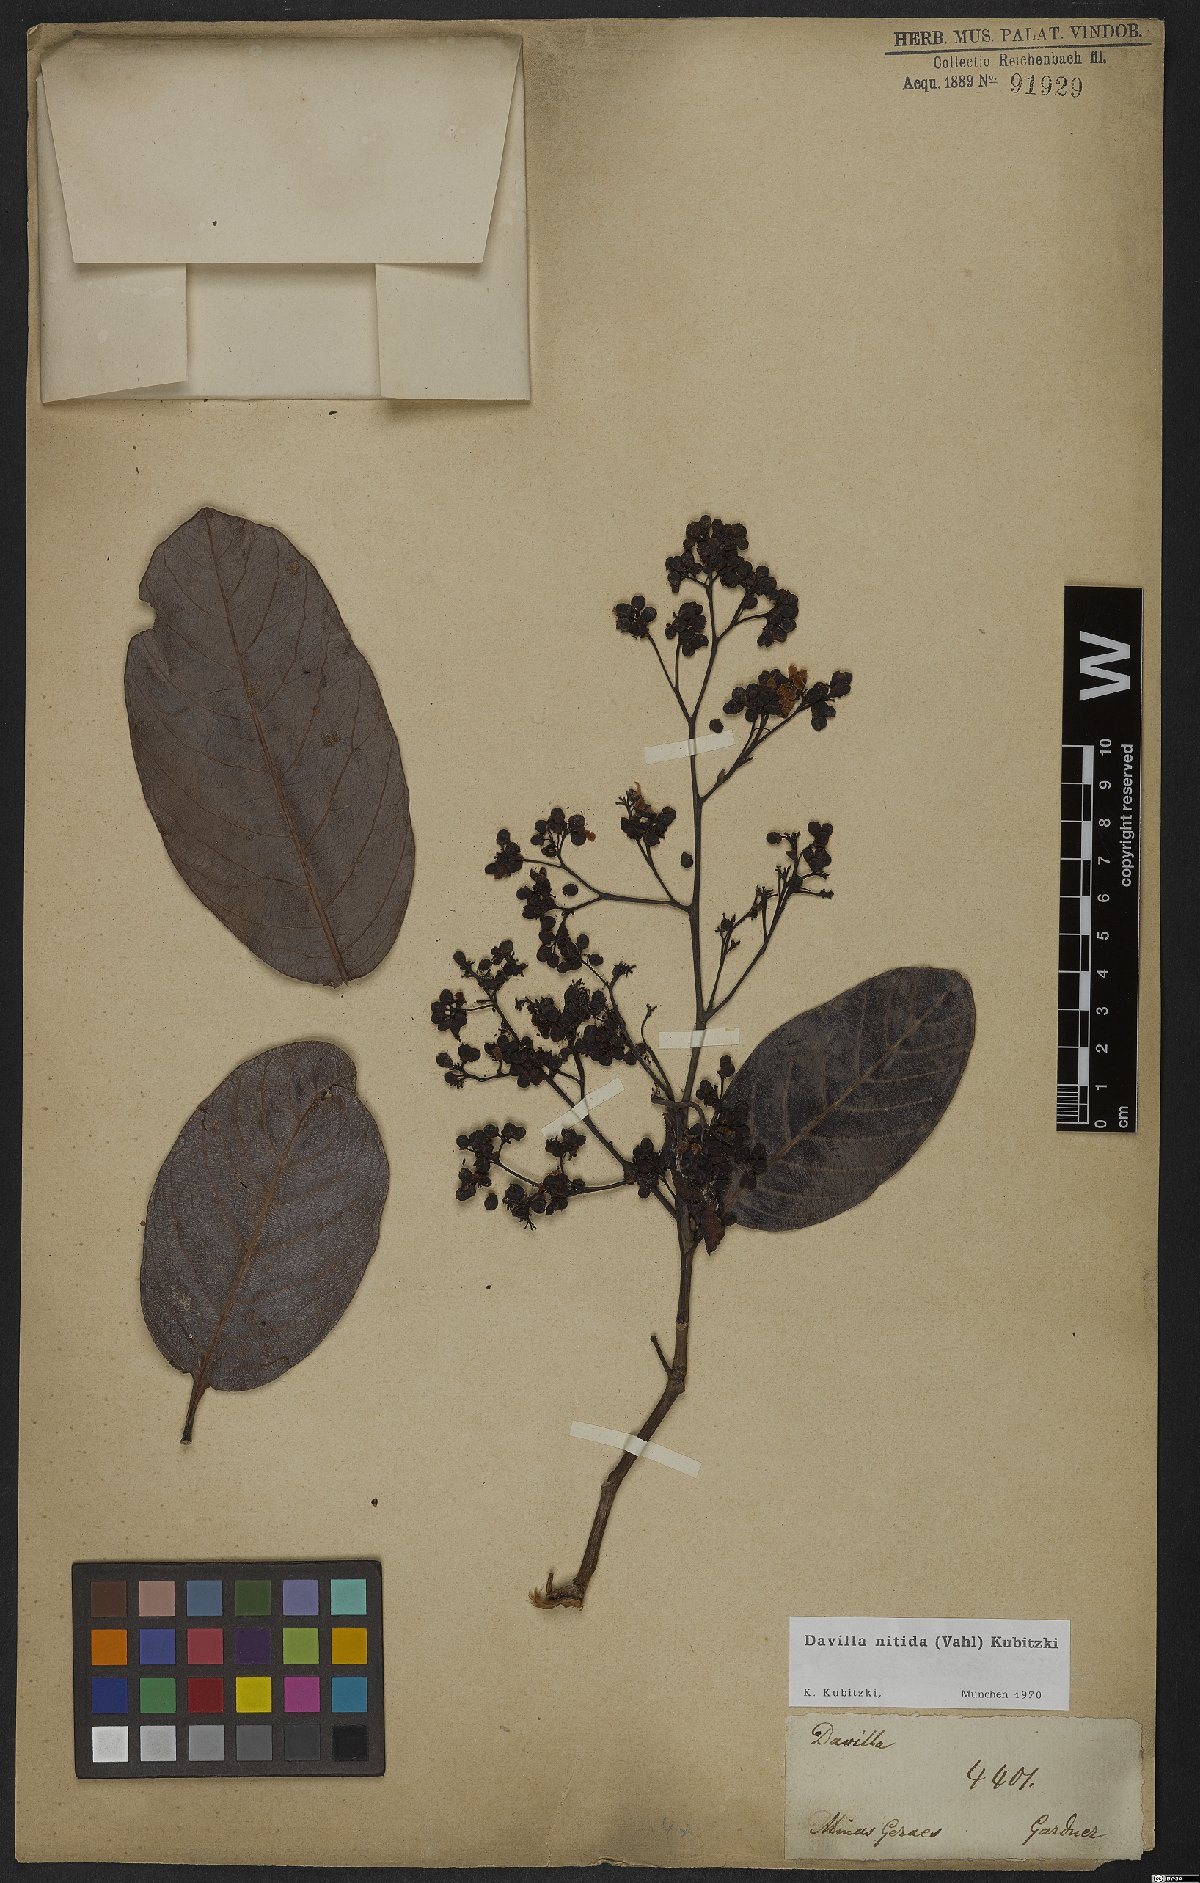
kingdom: Plantae
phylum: Tracheophyta
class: Magnoliopsida
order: Dilleniales
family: Dilleniaceae
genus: Davilla
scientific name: Davilla nitida
